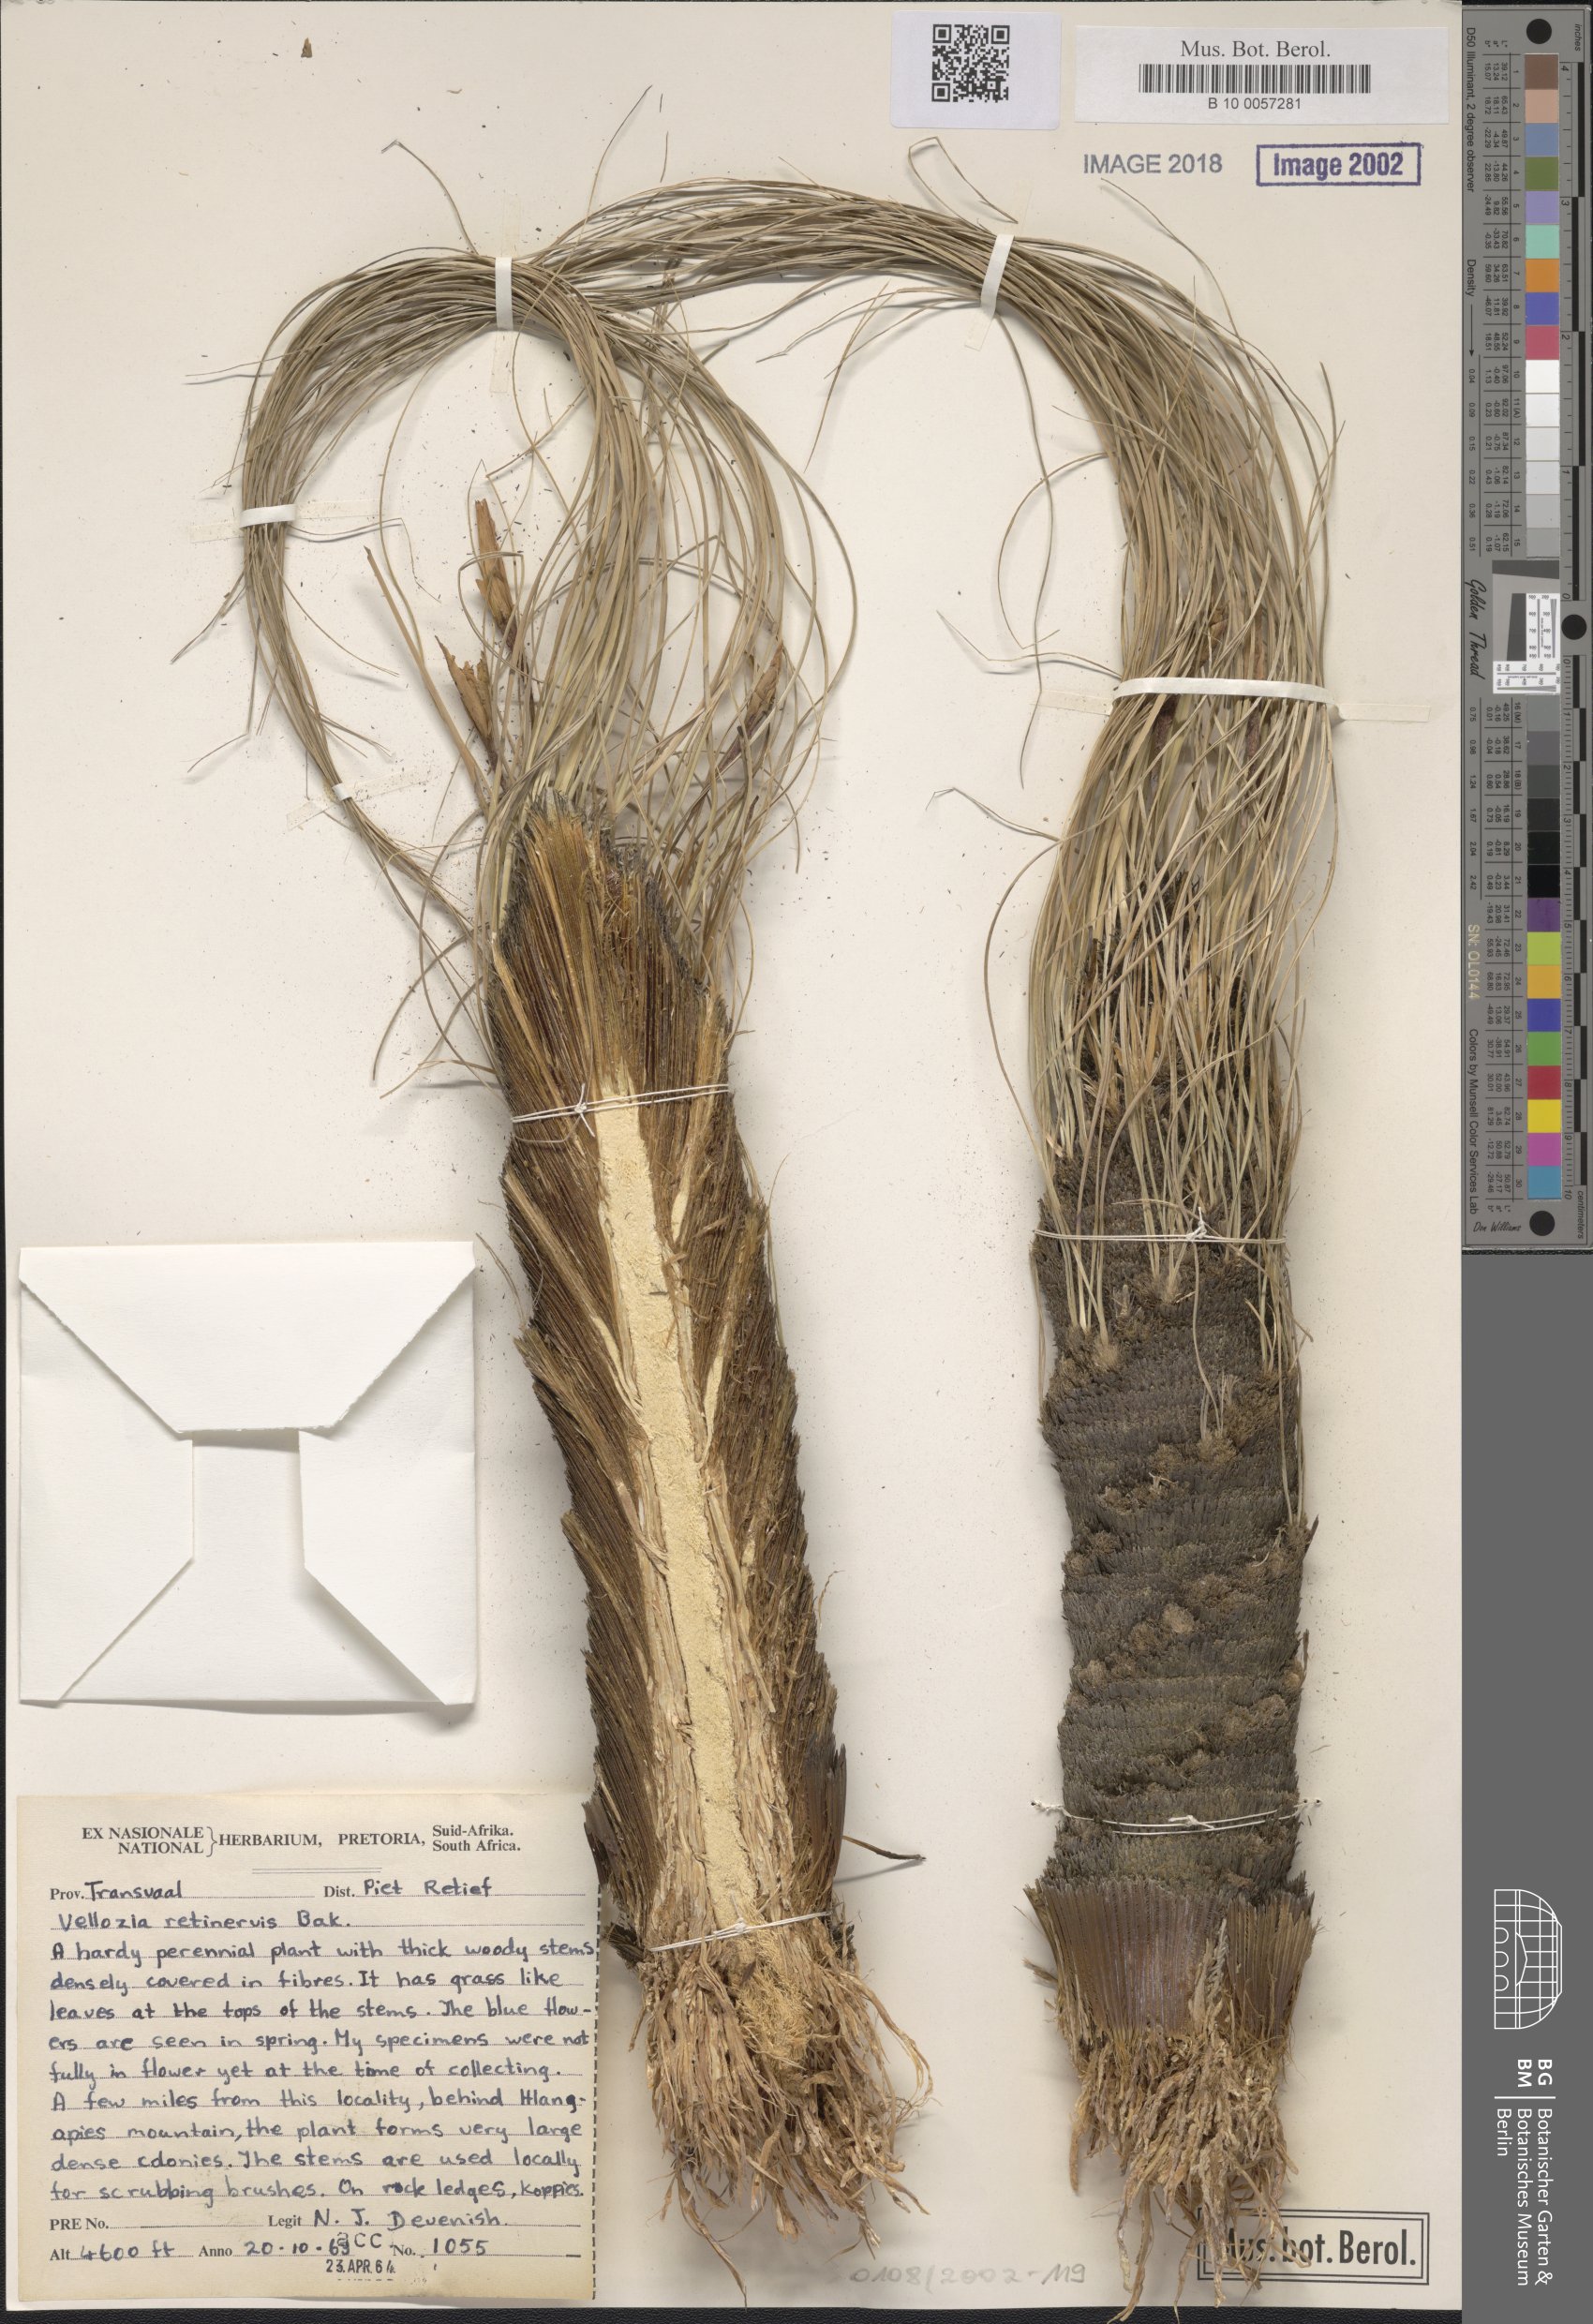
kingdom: Plantae
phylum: Tracheophyta
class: Liliopsida
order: Pandanales
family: Velloziaceae
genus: Xerophyta
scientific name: Xerophyta retinervis
